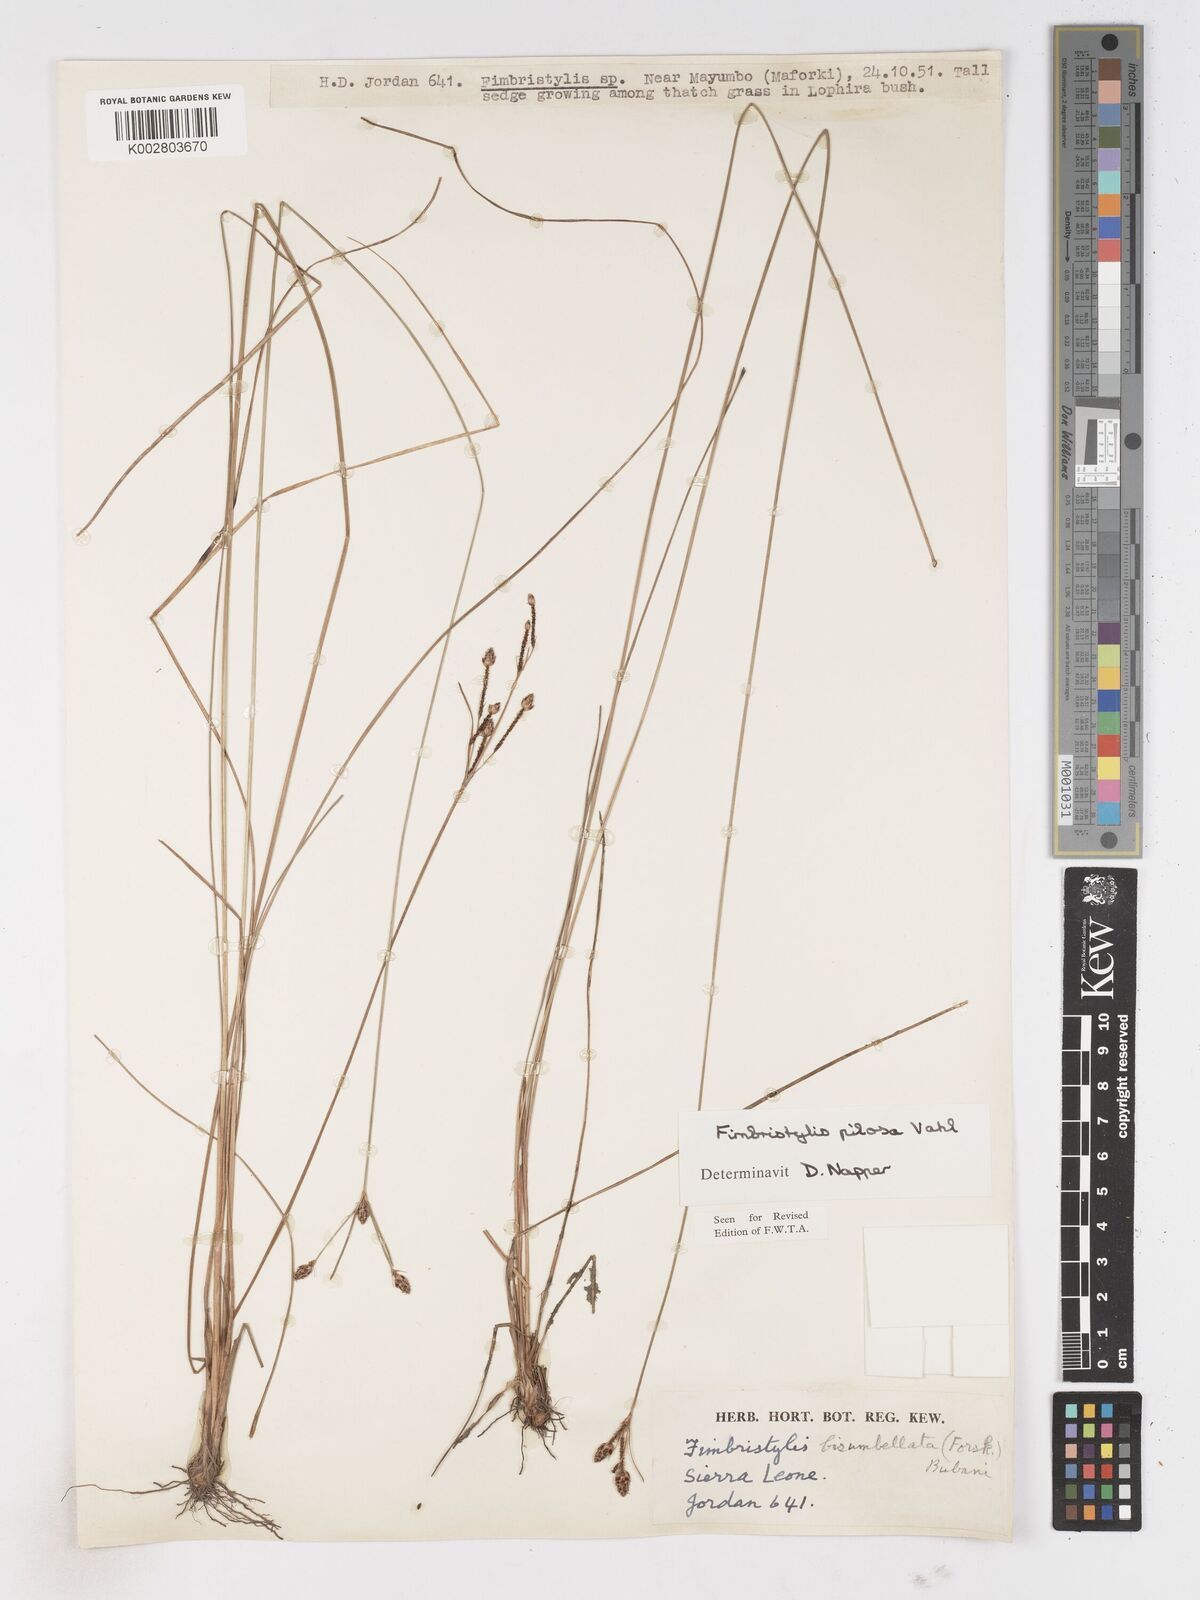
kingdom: Plantae
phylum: Tracheophyta
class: Liliopsida
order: Poales
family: Cyperaceae
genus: Fimbristylis
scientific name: Fimbristylis pilosa
